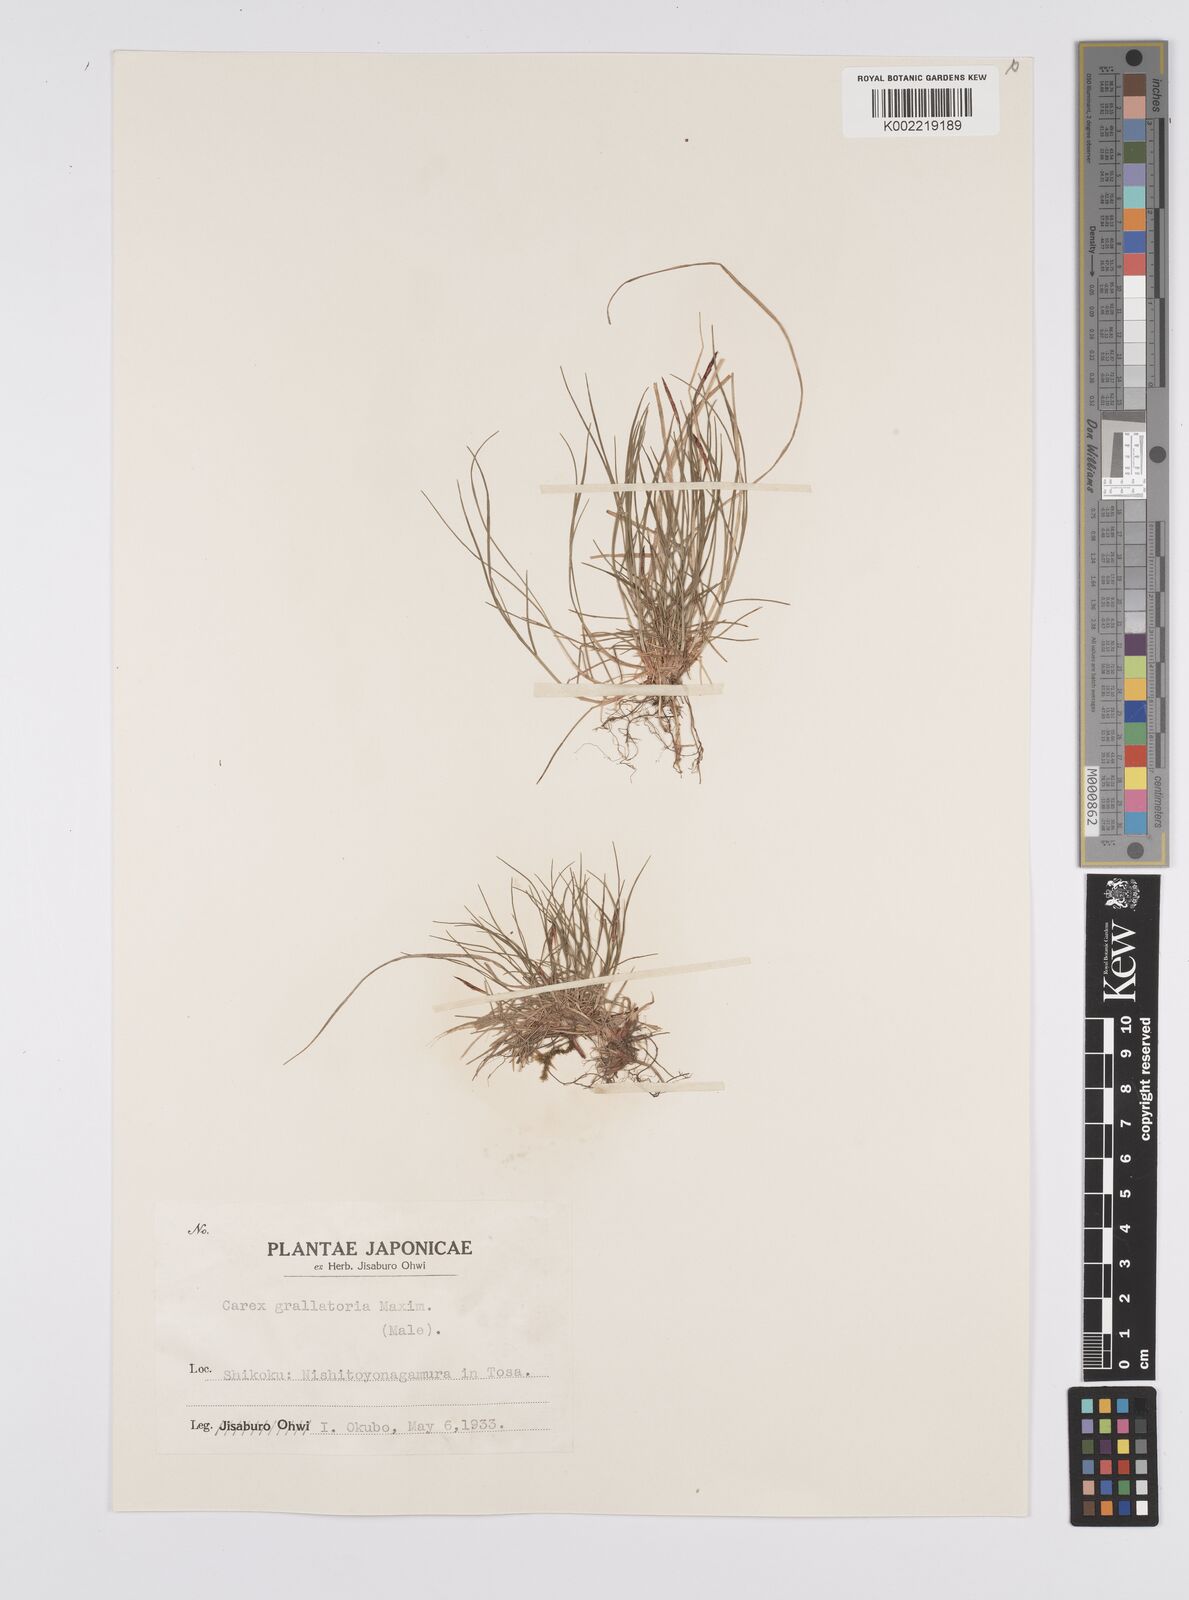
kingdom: Plantae
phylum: Tracheophyta
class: Liliopsida
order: Poales
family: Cyperaceae
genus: Carex
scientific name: Carex grallatoria
